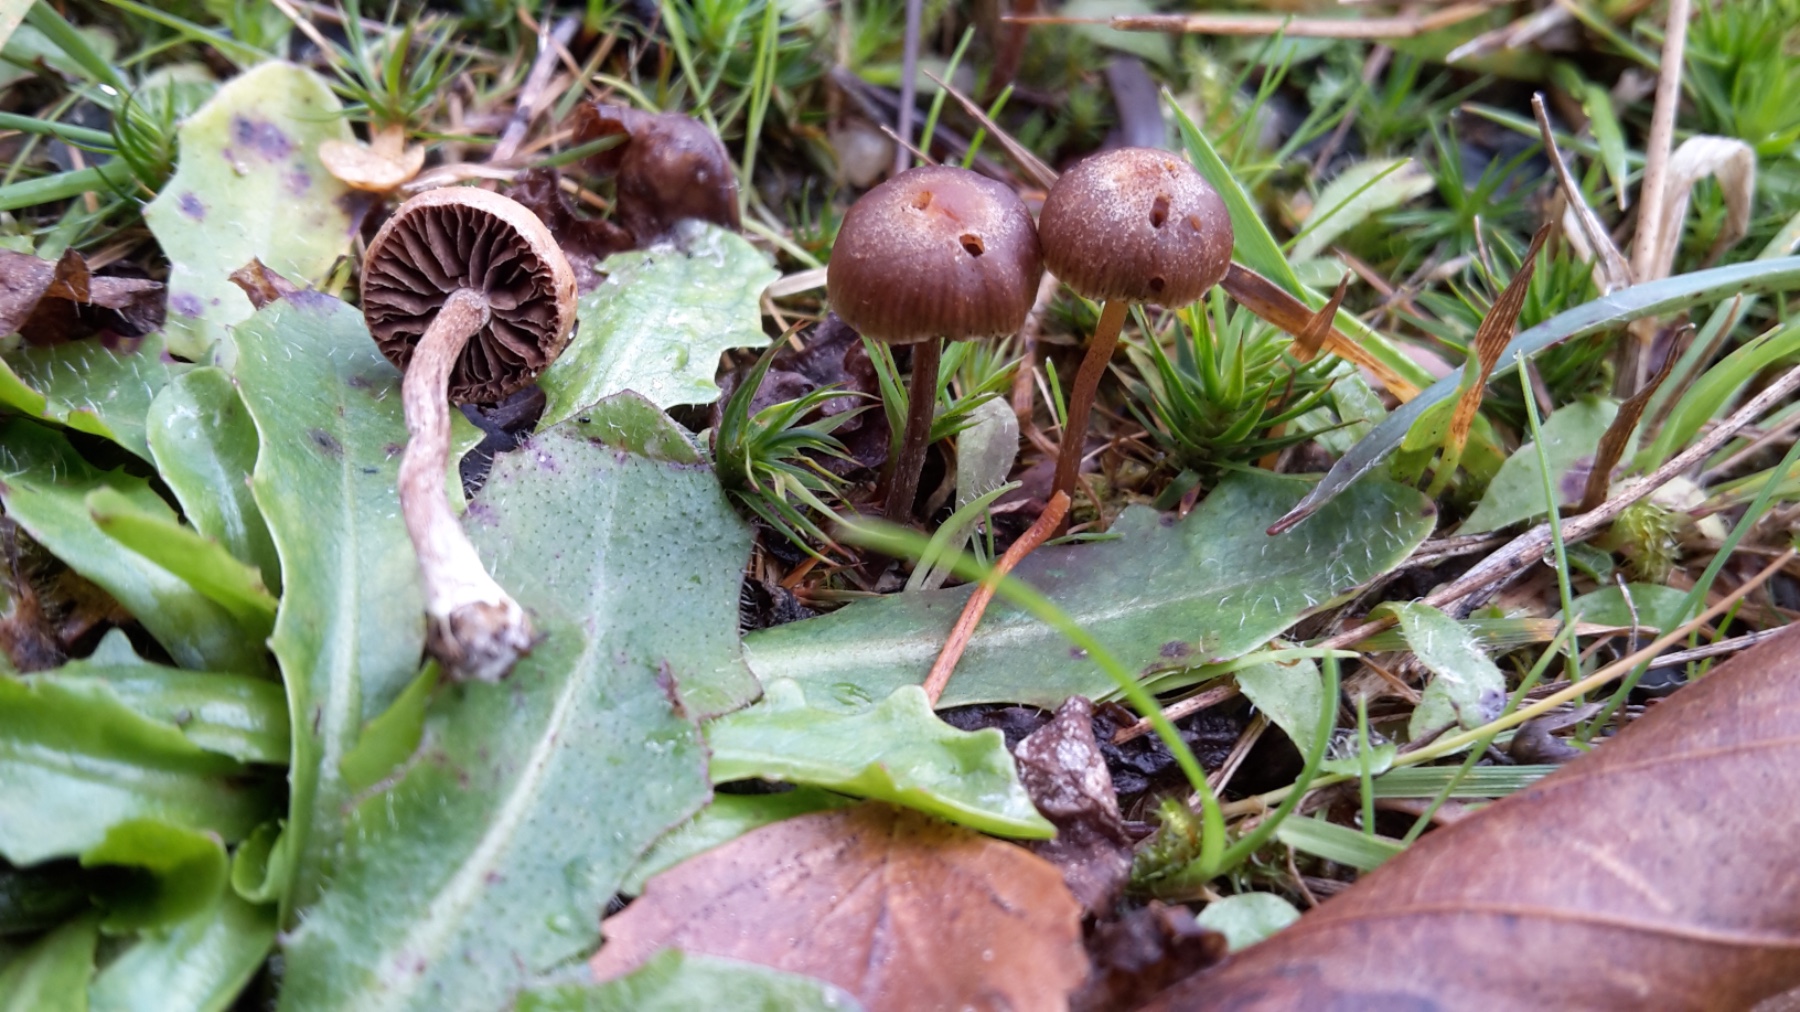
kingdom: Fungi
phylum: Basidiomycota
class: Agaricomycetes
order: Agaricales
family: Strophariaceae
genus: Deconica
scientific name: Deconica montana
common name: rødbrun stråhat
